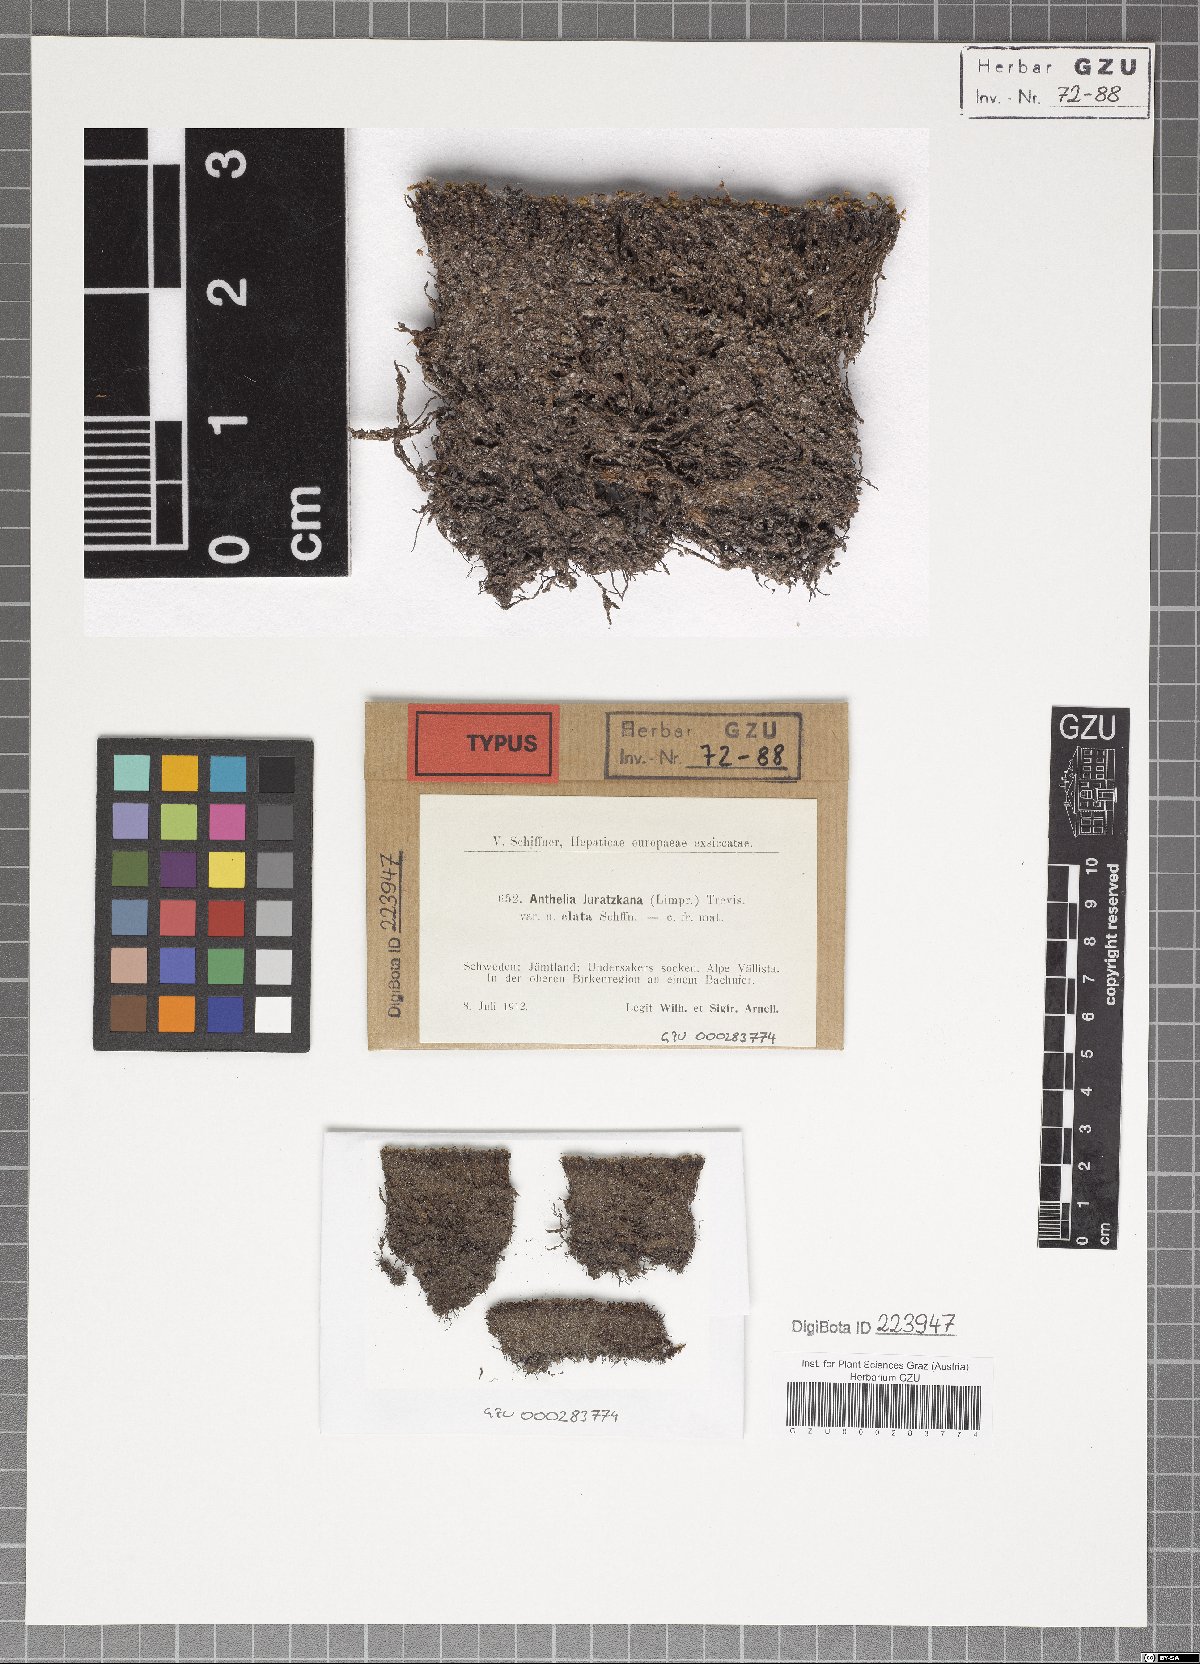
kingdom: Plantae
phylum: Marchantiophyta
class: Jungermanniopsida
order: Jungermanniales
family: Antheliaceae
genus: Anthelia
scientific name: Anthelia juratzkana
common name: Juratzka s silverwort
